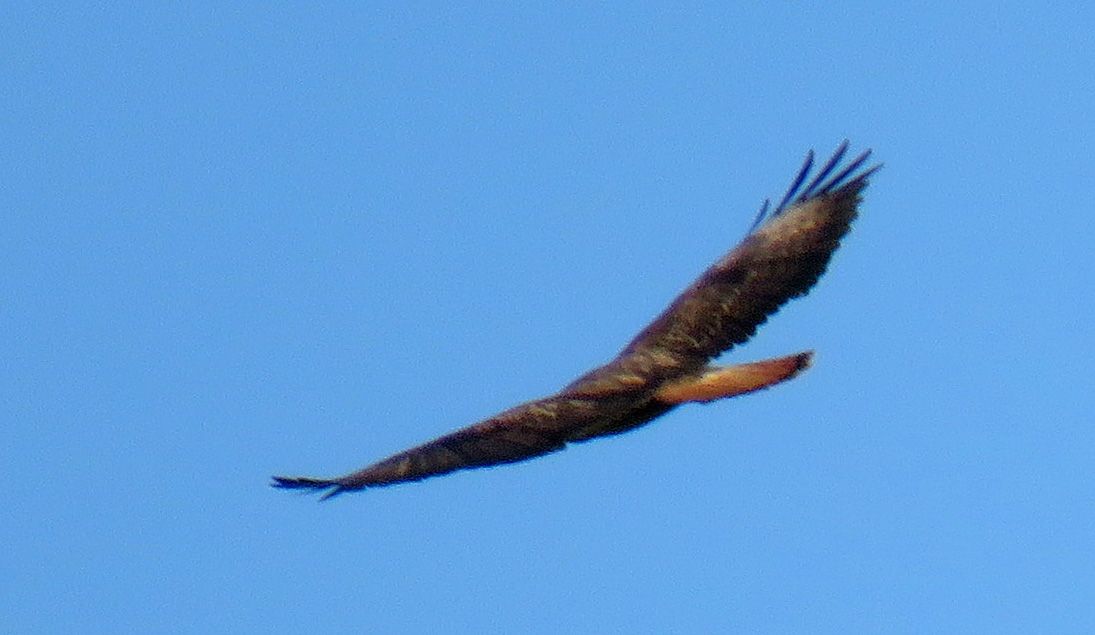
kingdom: Animalia
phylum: Chordata
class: Aves
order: Accipitriformes
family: Accipitridae
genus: Buteo
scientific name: Buteo buteo
